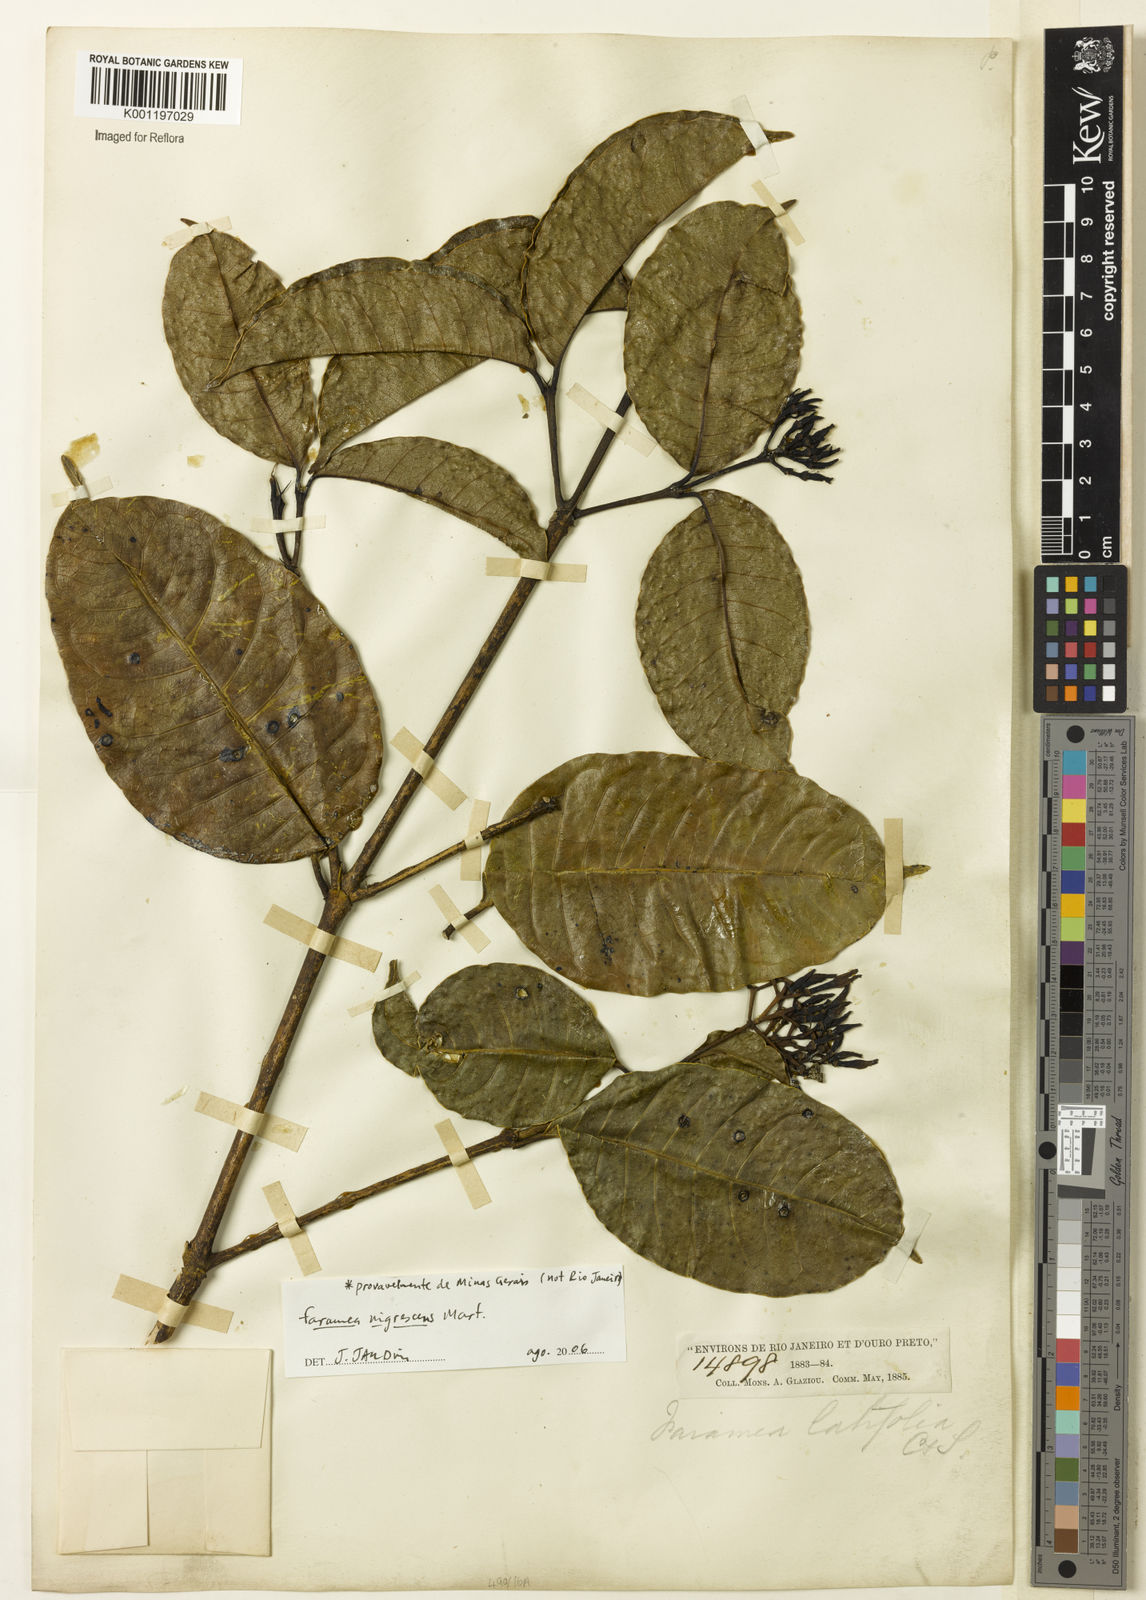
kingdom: Plantae
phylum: Tracheophyta
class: Magnoliopsida
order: Gentianales
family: Rubiaceae
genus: Faramea
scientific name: Faramea nigrescens
